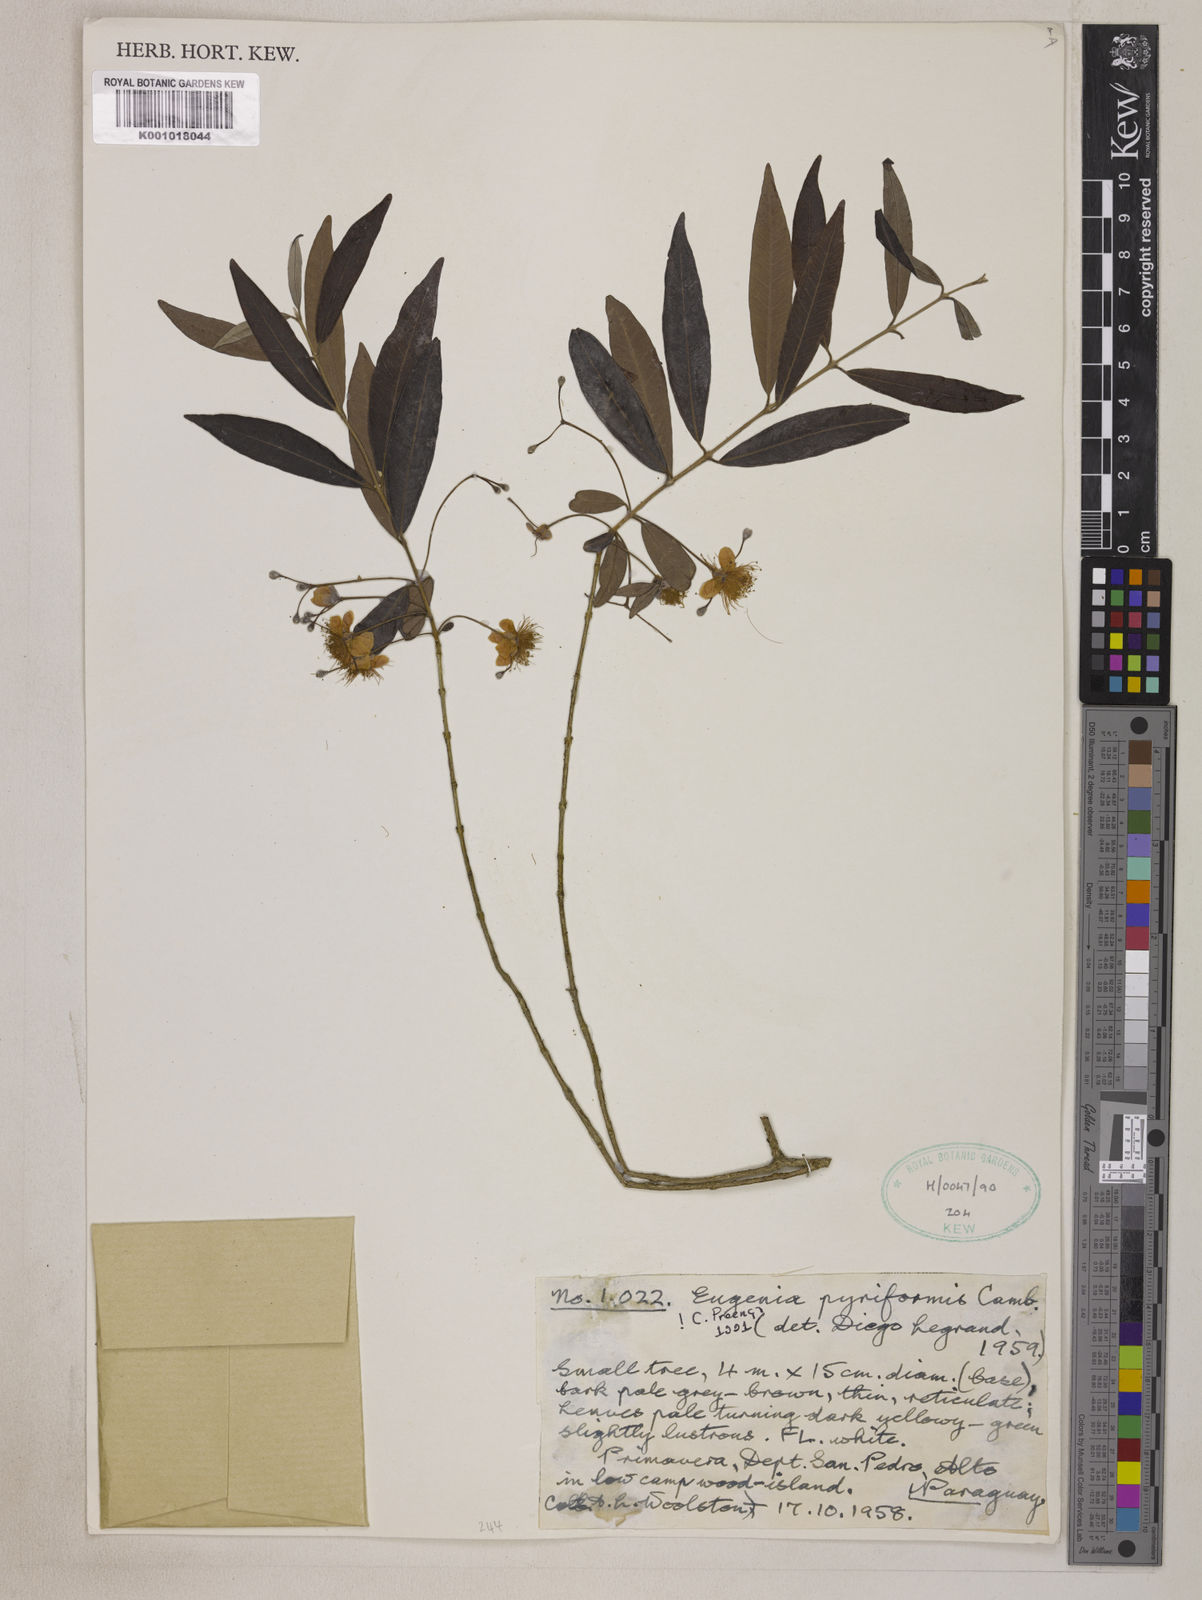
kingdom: Plantae
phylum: Tracheophyta
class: Magnoliopsida
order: Myrtales
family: Myrtaceae
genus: Eugenia
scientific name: Eugenia pyriformis
